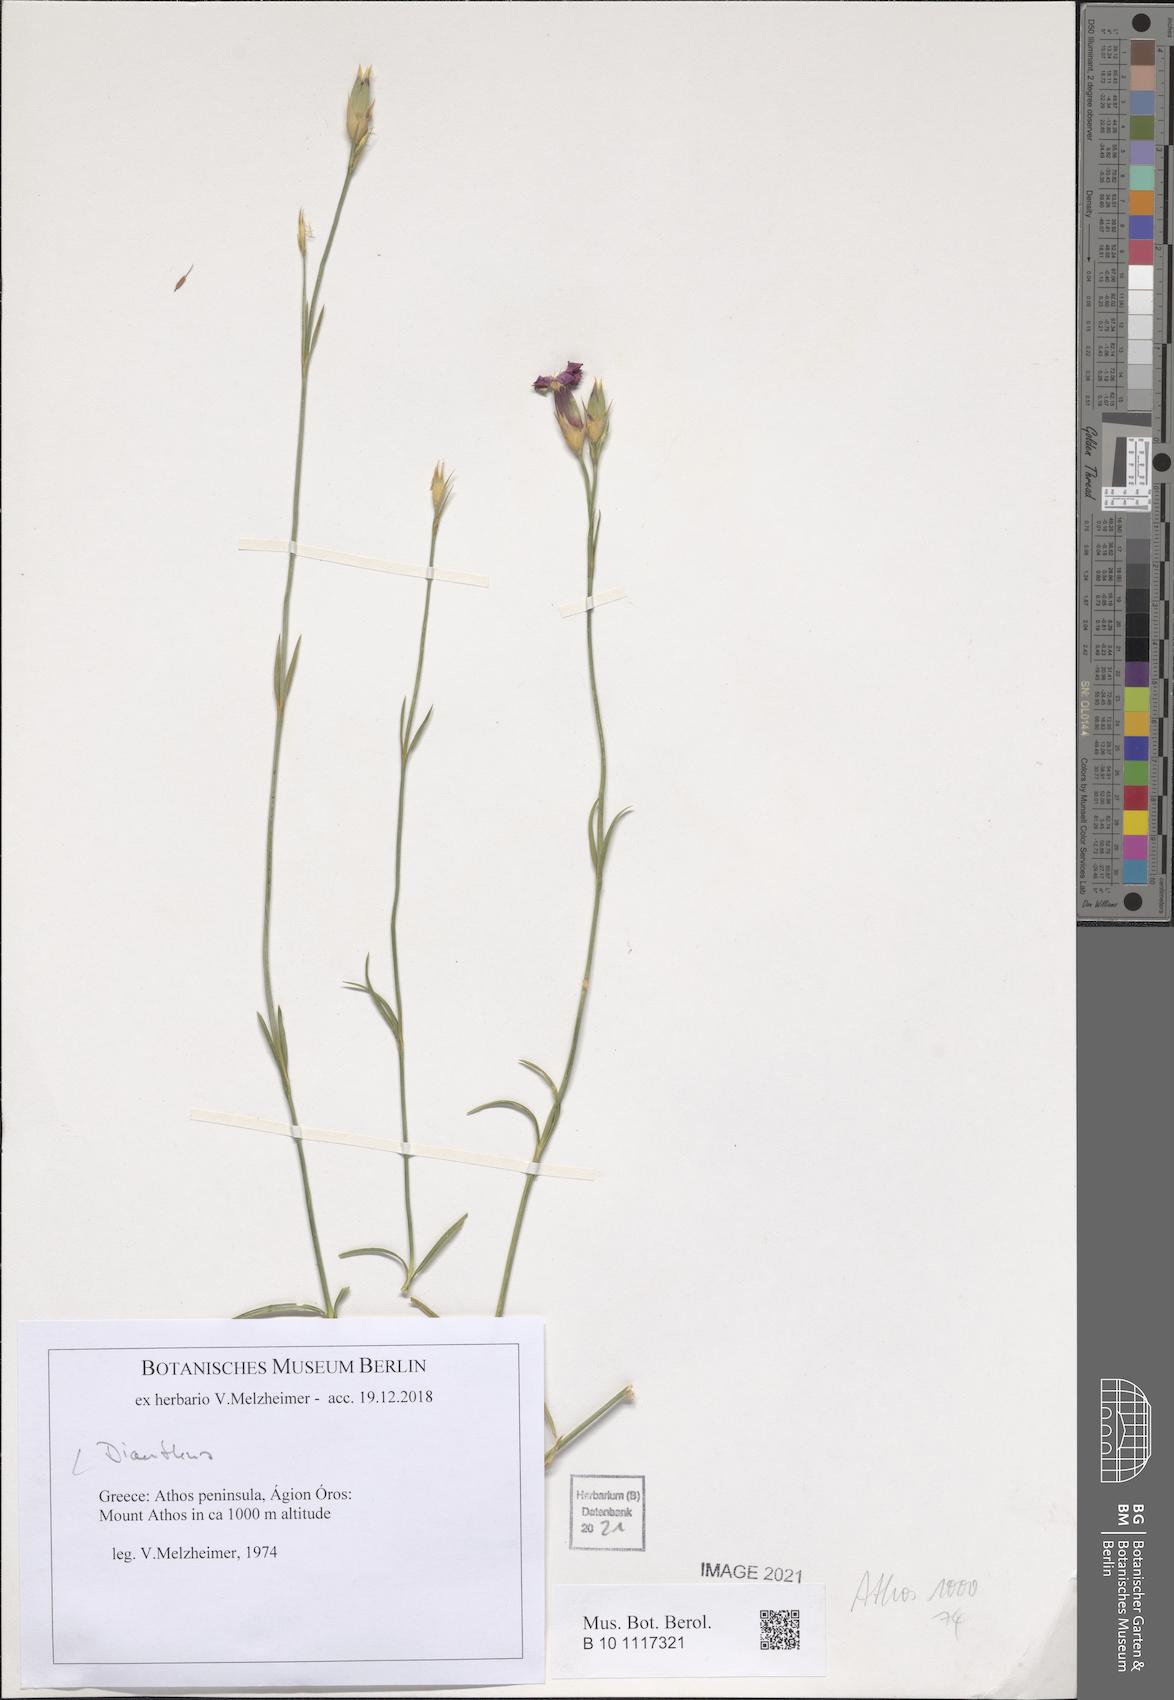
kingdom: Plantae
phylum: Tracheophyta
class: Magnoliopsida
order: Caryophyllales
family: Caryophyllaceae
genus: Dianthus
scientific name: Dianthus
